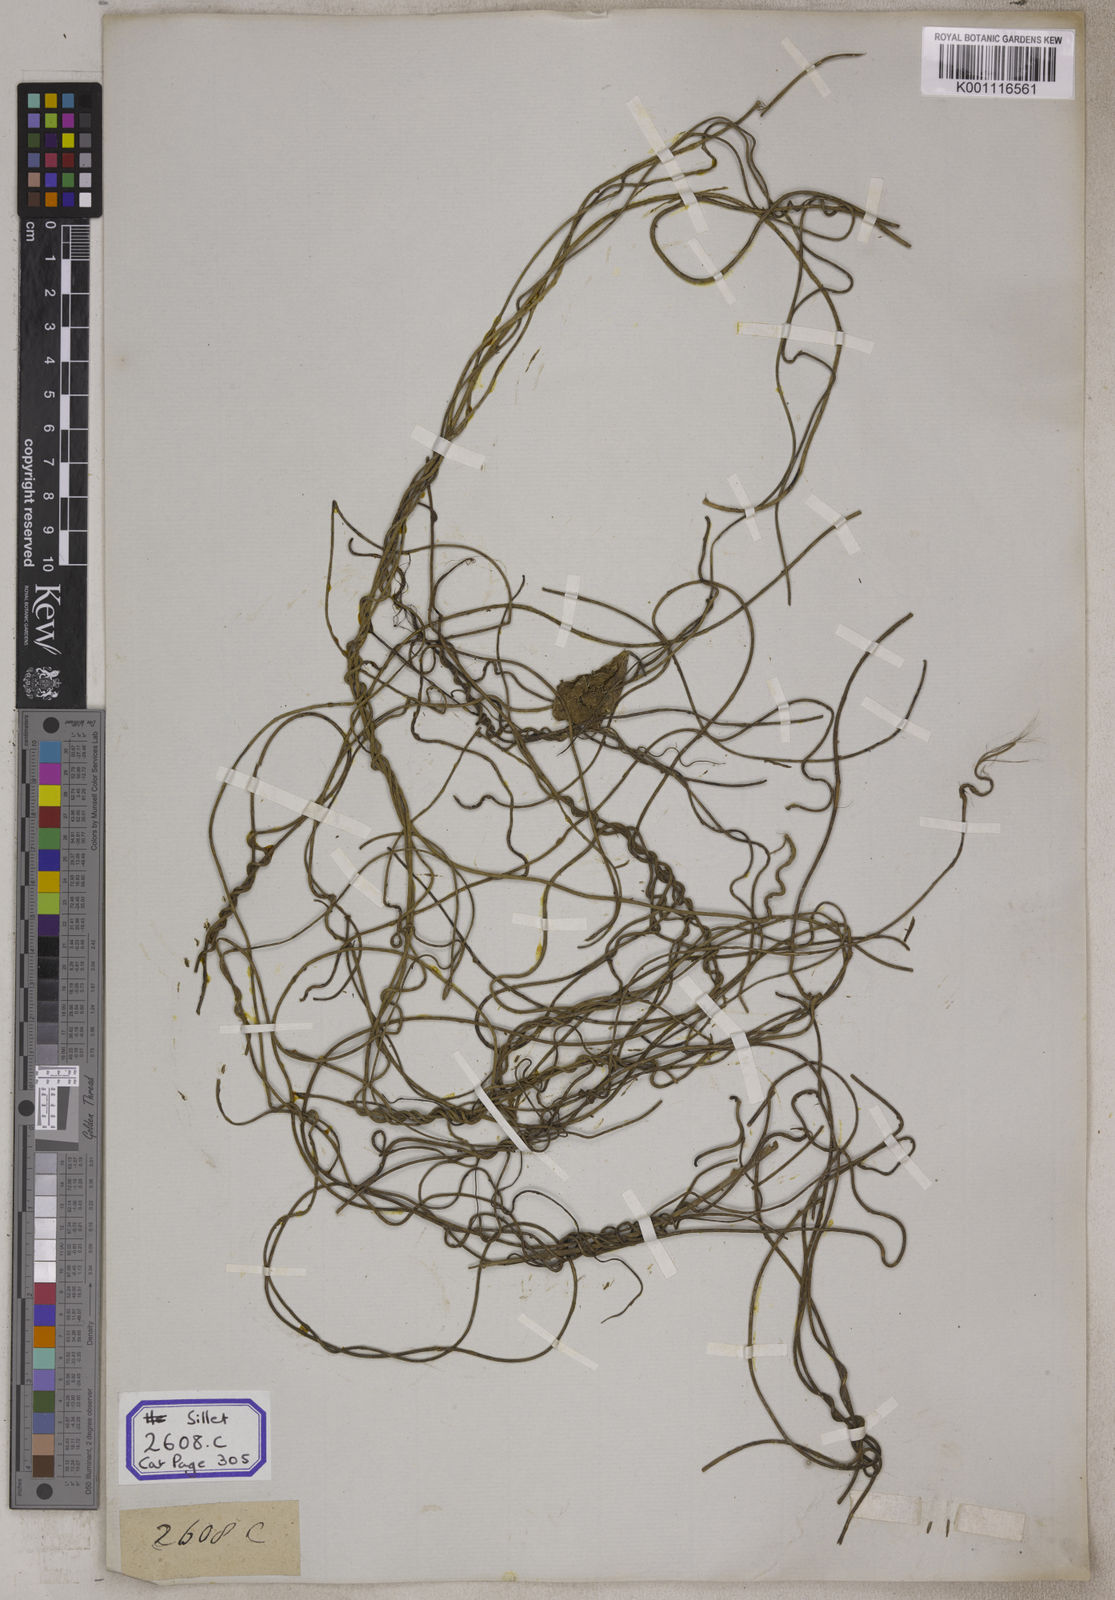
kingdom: Plantae
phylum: Tracheophyta
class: Magnoliopsida
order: Laurales
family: Lauraceae
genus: Cassytha
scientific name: Cassytha filiformis
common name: Dodder-laurel
